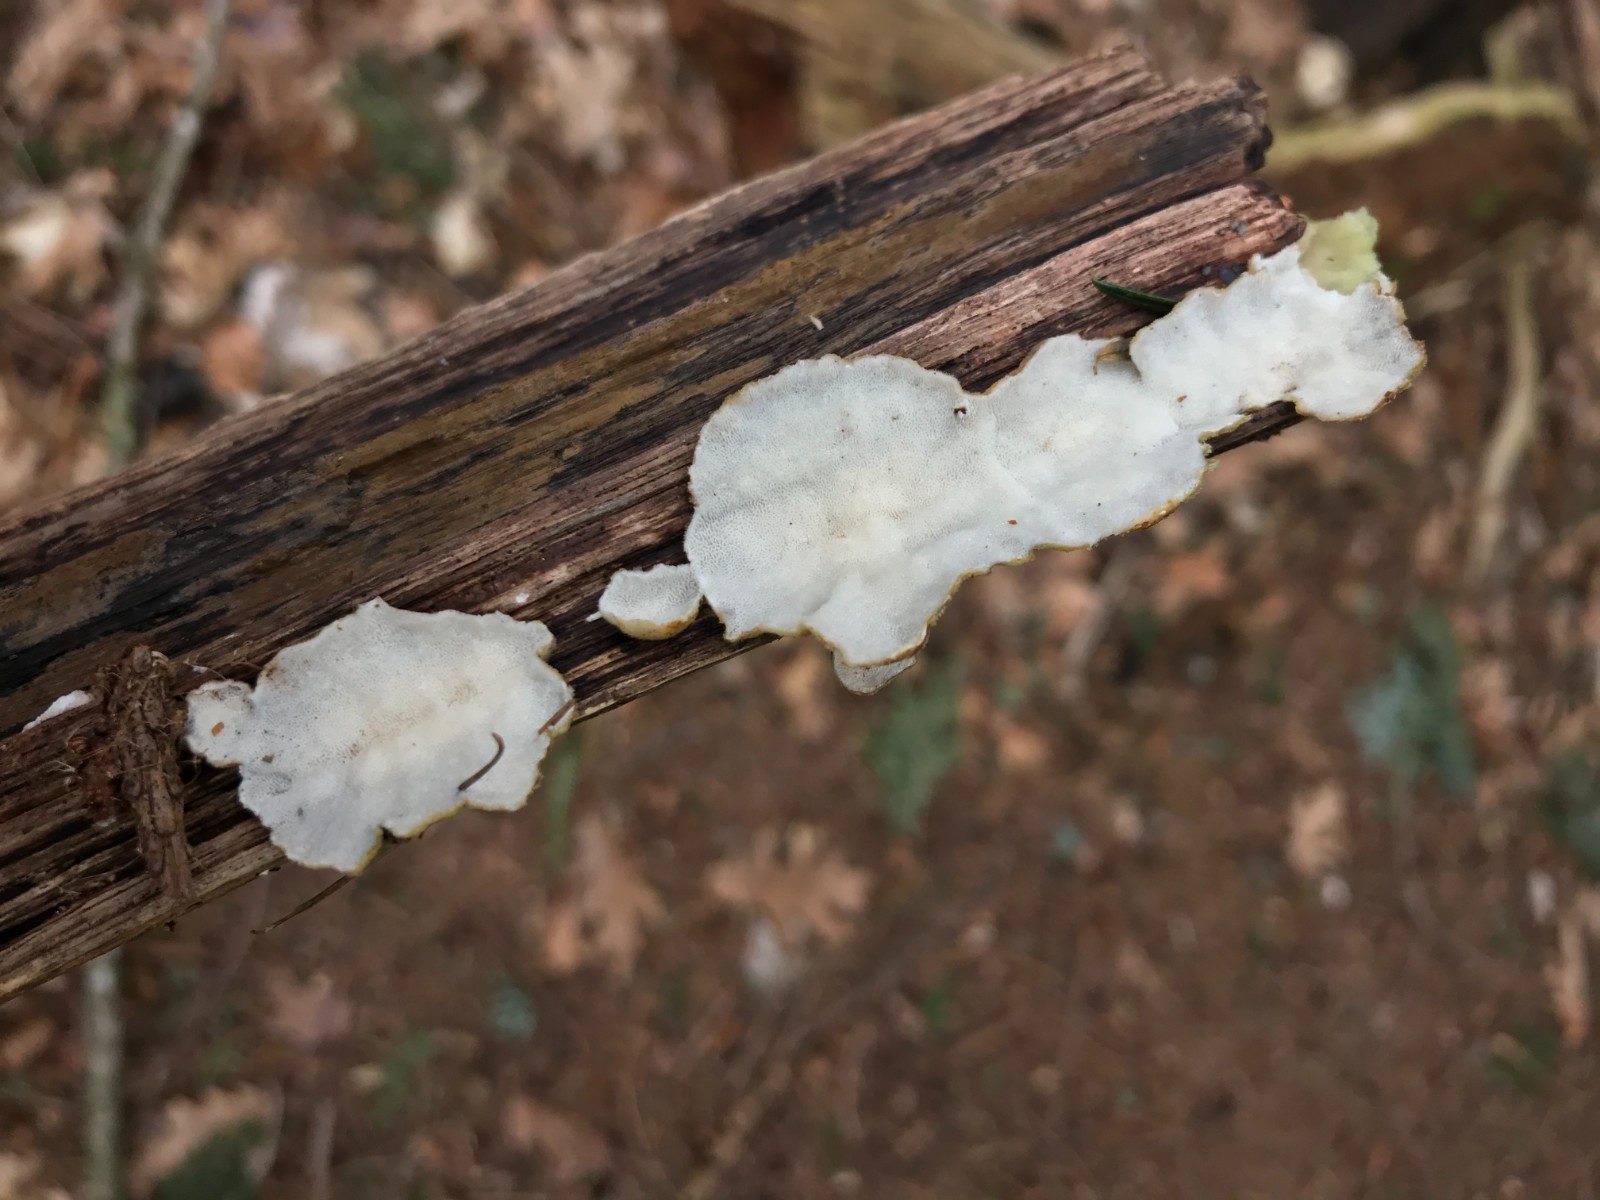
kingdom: Fungi
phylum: Basidiomycota
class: Agaricomycetes
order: Polyporales
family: Incrustoporiaceae
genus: Skeletocutis
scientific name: Skeletocutis nemoralis
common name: stor krystalporesvamp
